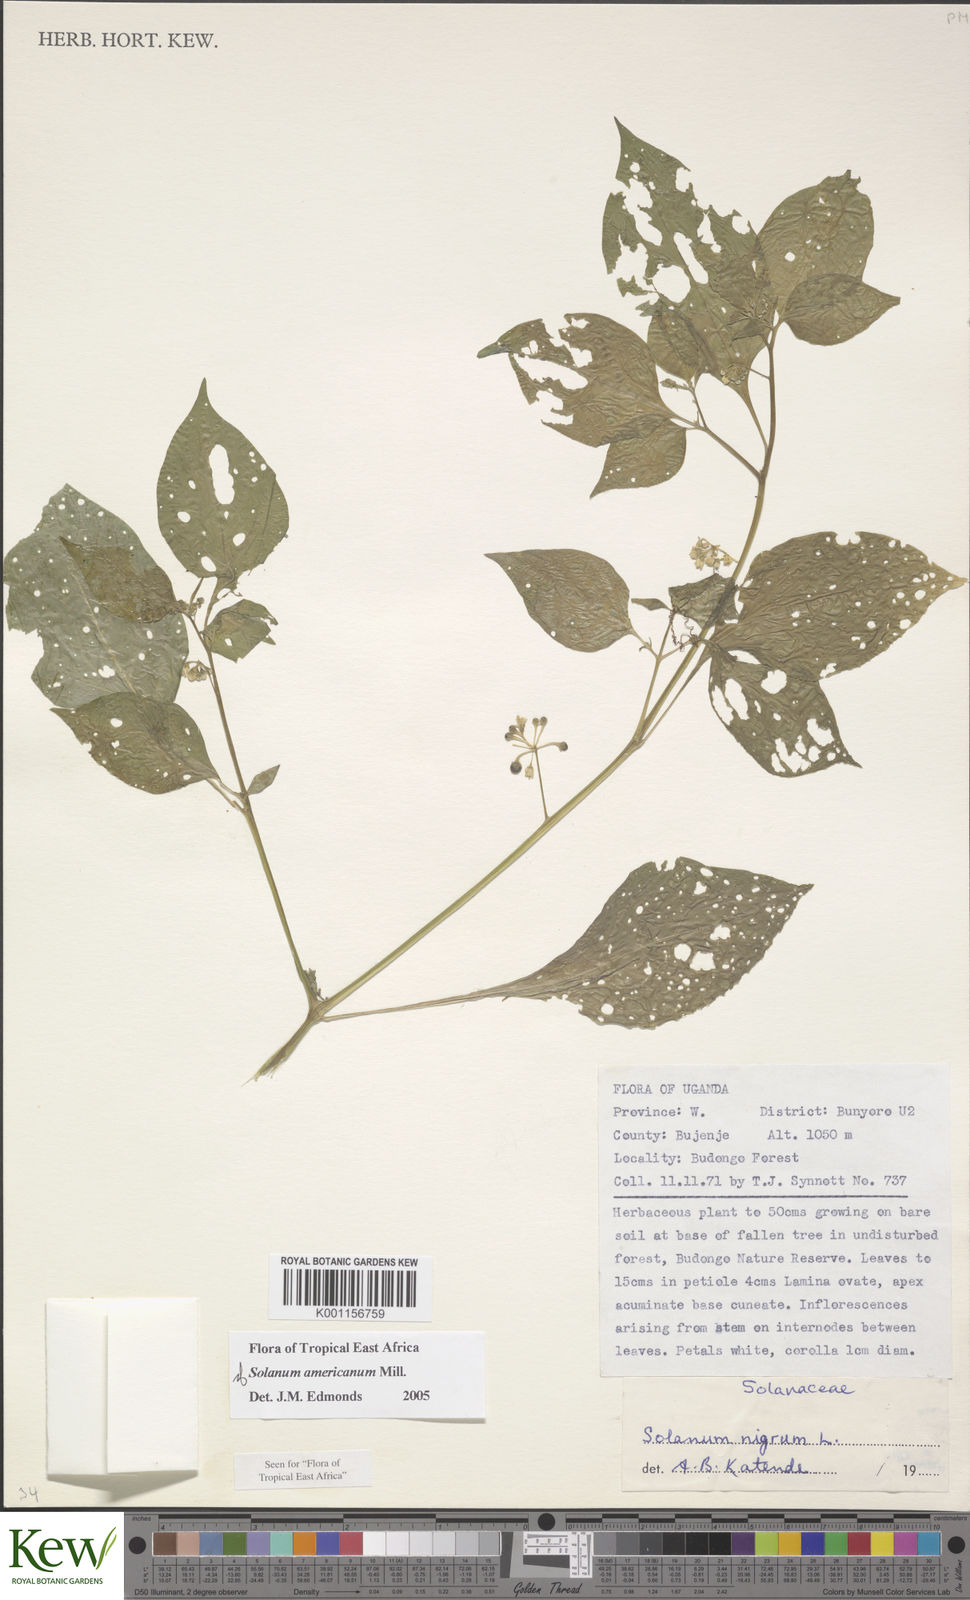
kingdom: Plantae
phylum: Tracheophyta
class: Magnoliopsida
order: Solanales
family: Solanaceae
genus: Solanum
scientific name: Solanum scabrum
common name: Garden-huckleberry
